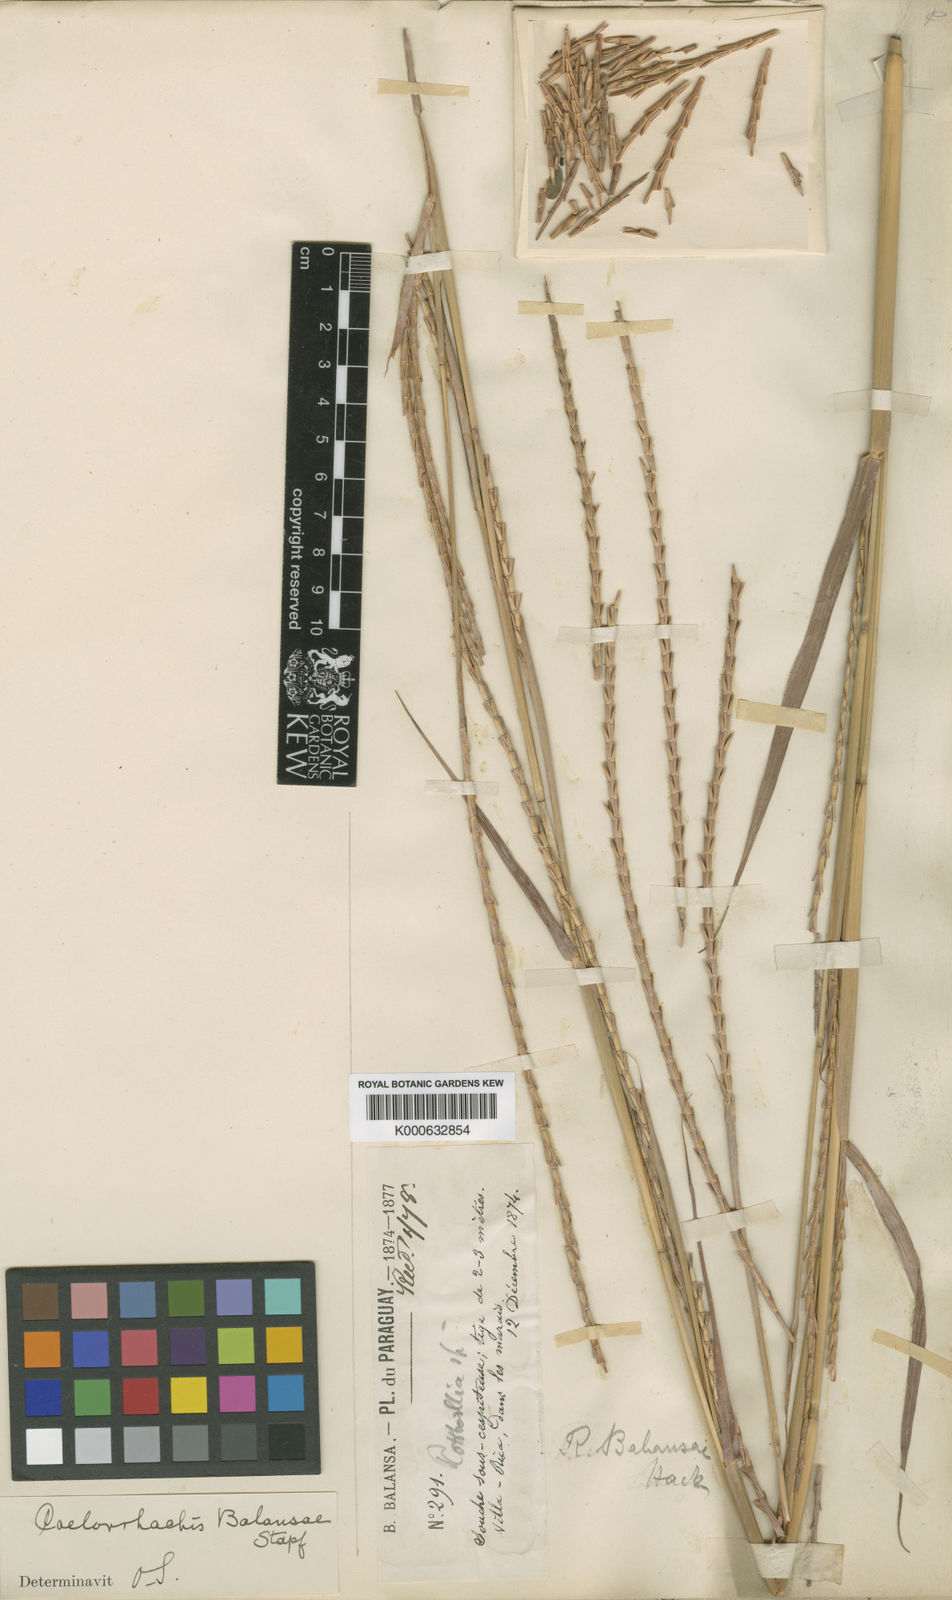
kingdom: Plantae
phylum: Tracheophyta
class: Liliopsida
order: Poales
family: Poaceae
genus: Rottboellia
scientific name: Rottboellia balansae
